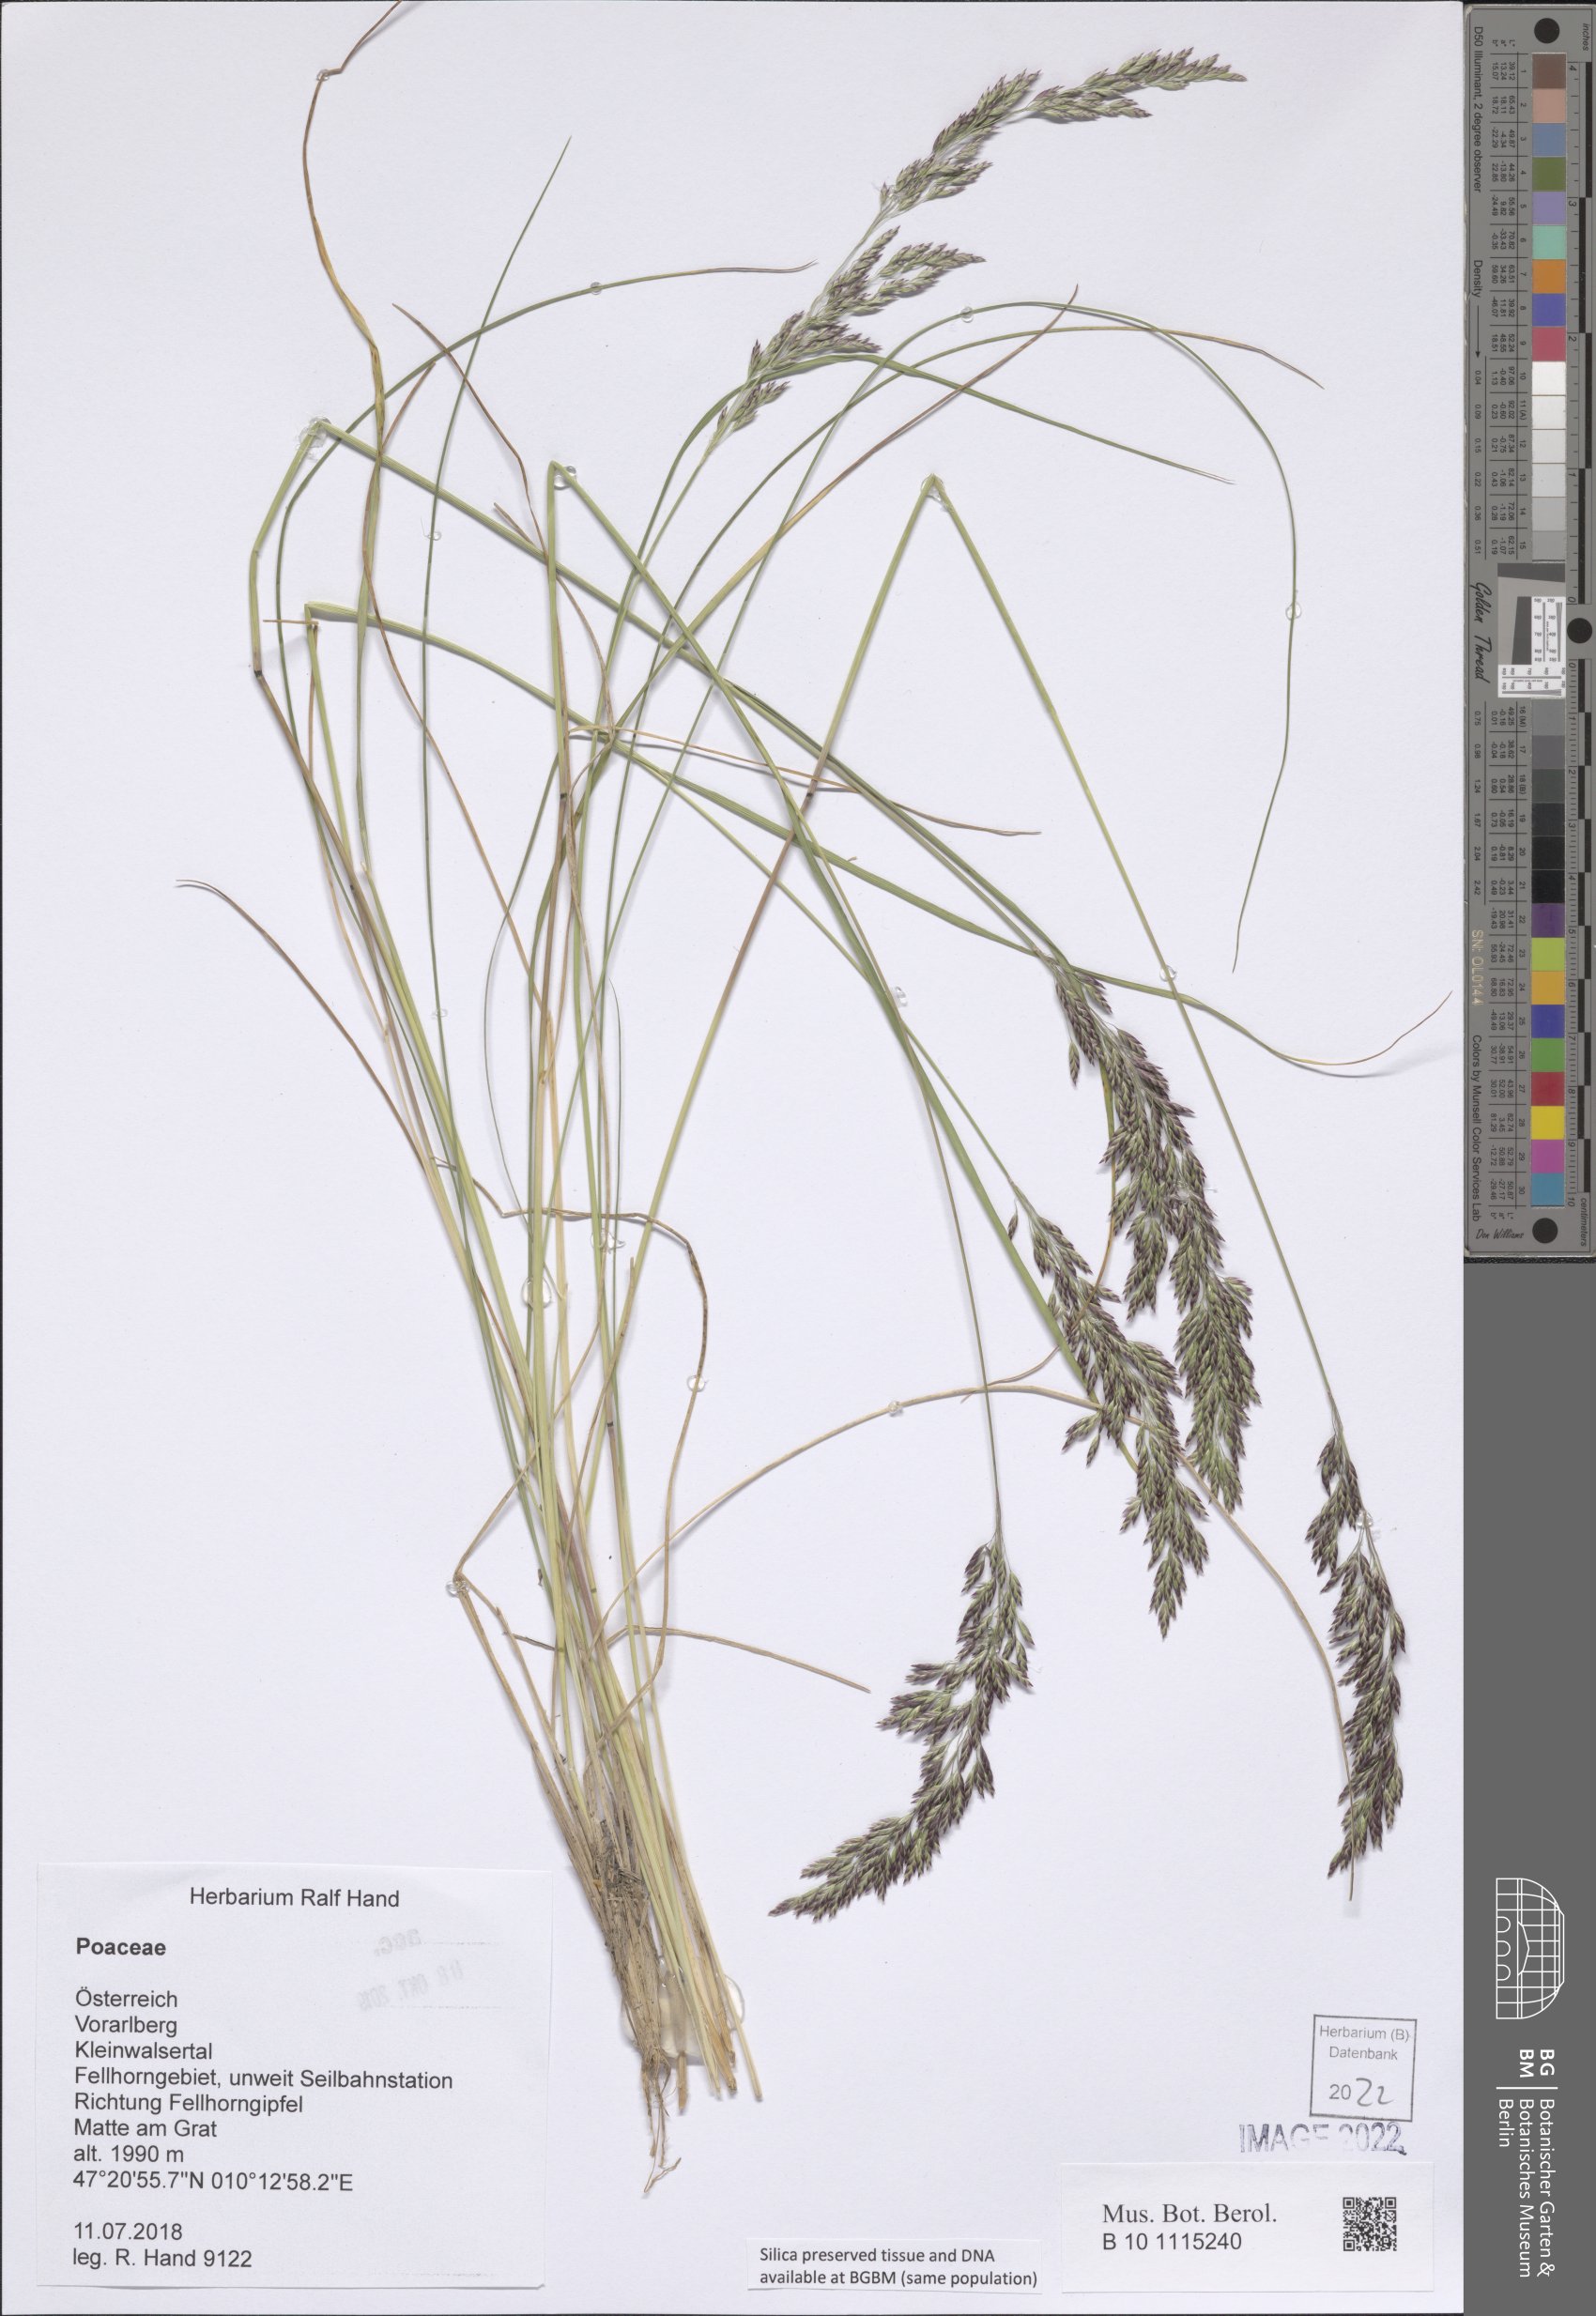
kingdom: Plantae
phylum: Tracheophyta
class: Liliopsida
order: Poales
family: Poaceae
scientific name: Poaceae
